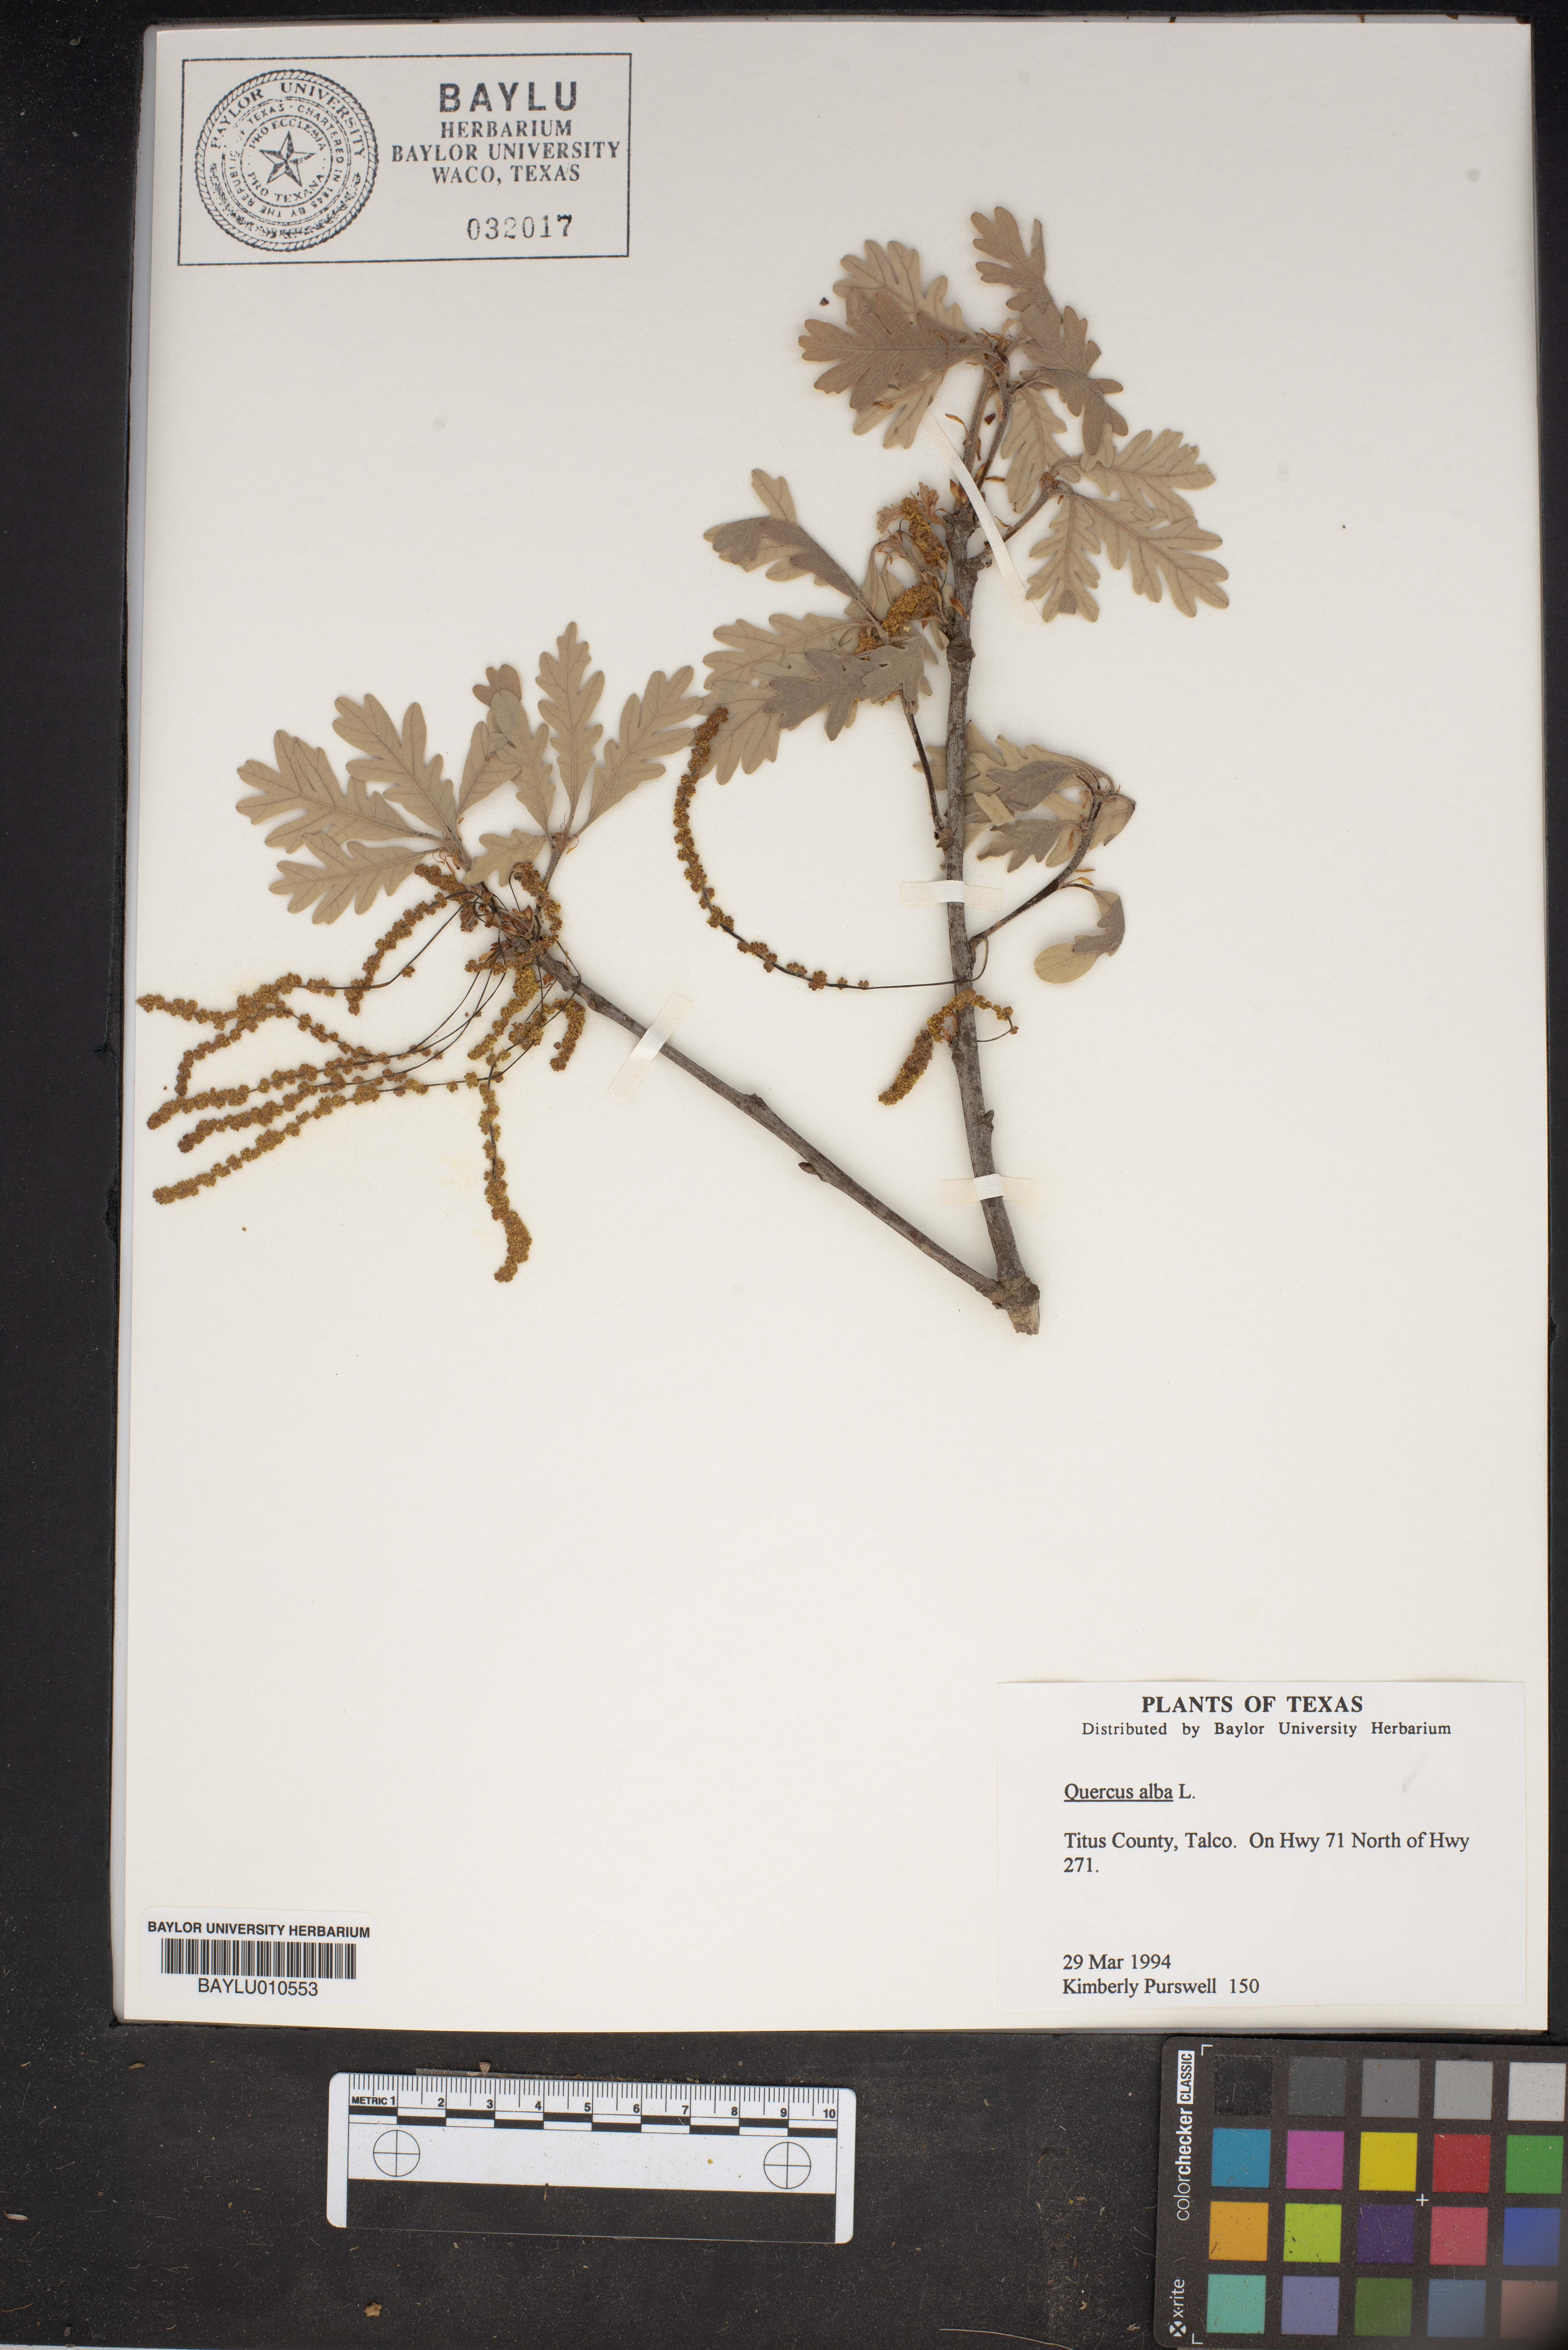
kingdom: Plantae
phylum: Tracheophyta
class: Magnoliopsida
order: Fagales
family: Fagaceae
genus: Quercus
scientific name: Quercus alba
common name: White oak
